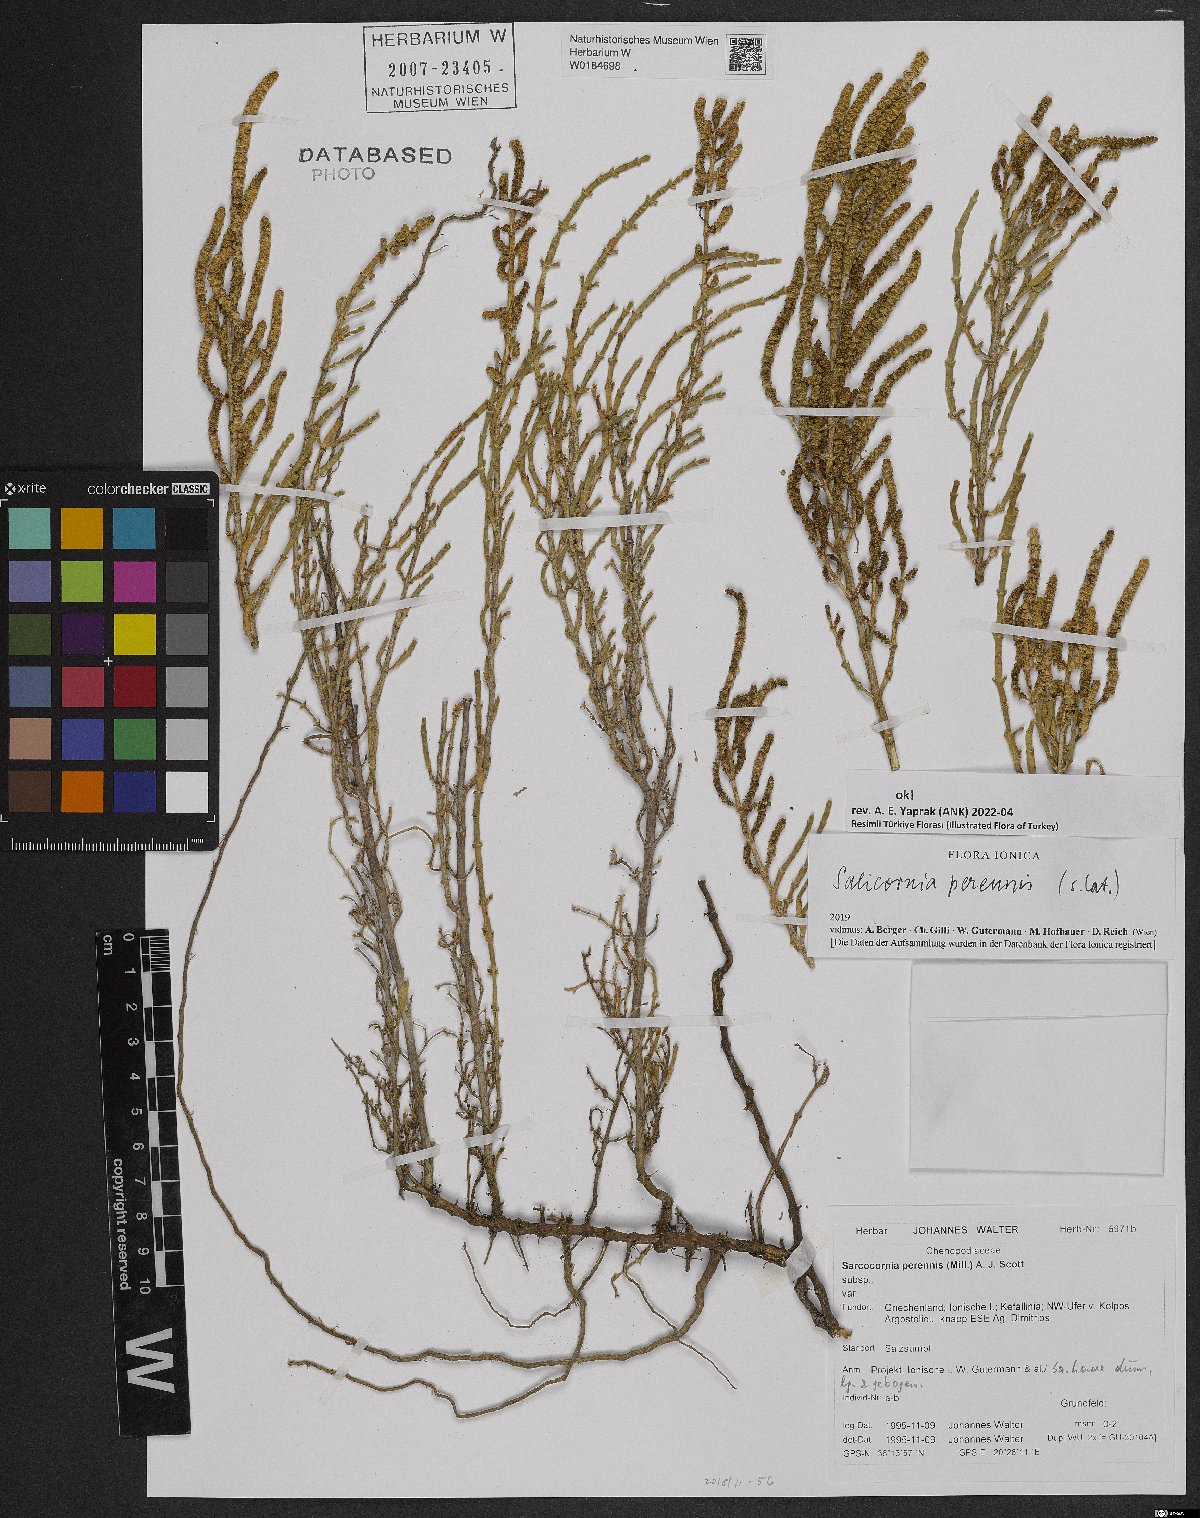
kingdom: Plantae
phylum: Tracheophyta
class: Magnoliopsida
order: Caryophyllales
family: Amaranthaceae
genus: Salicornia
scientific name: Salicornia perennis
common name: Chicken claws
